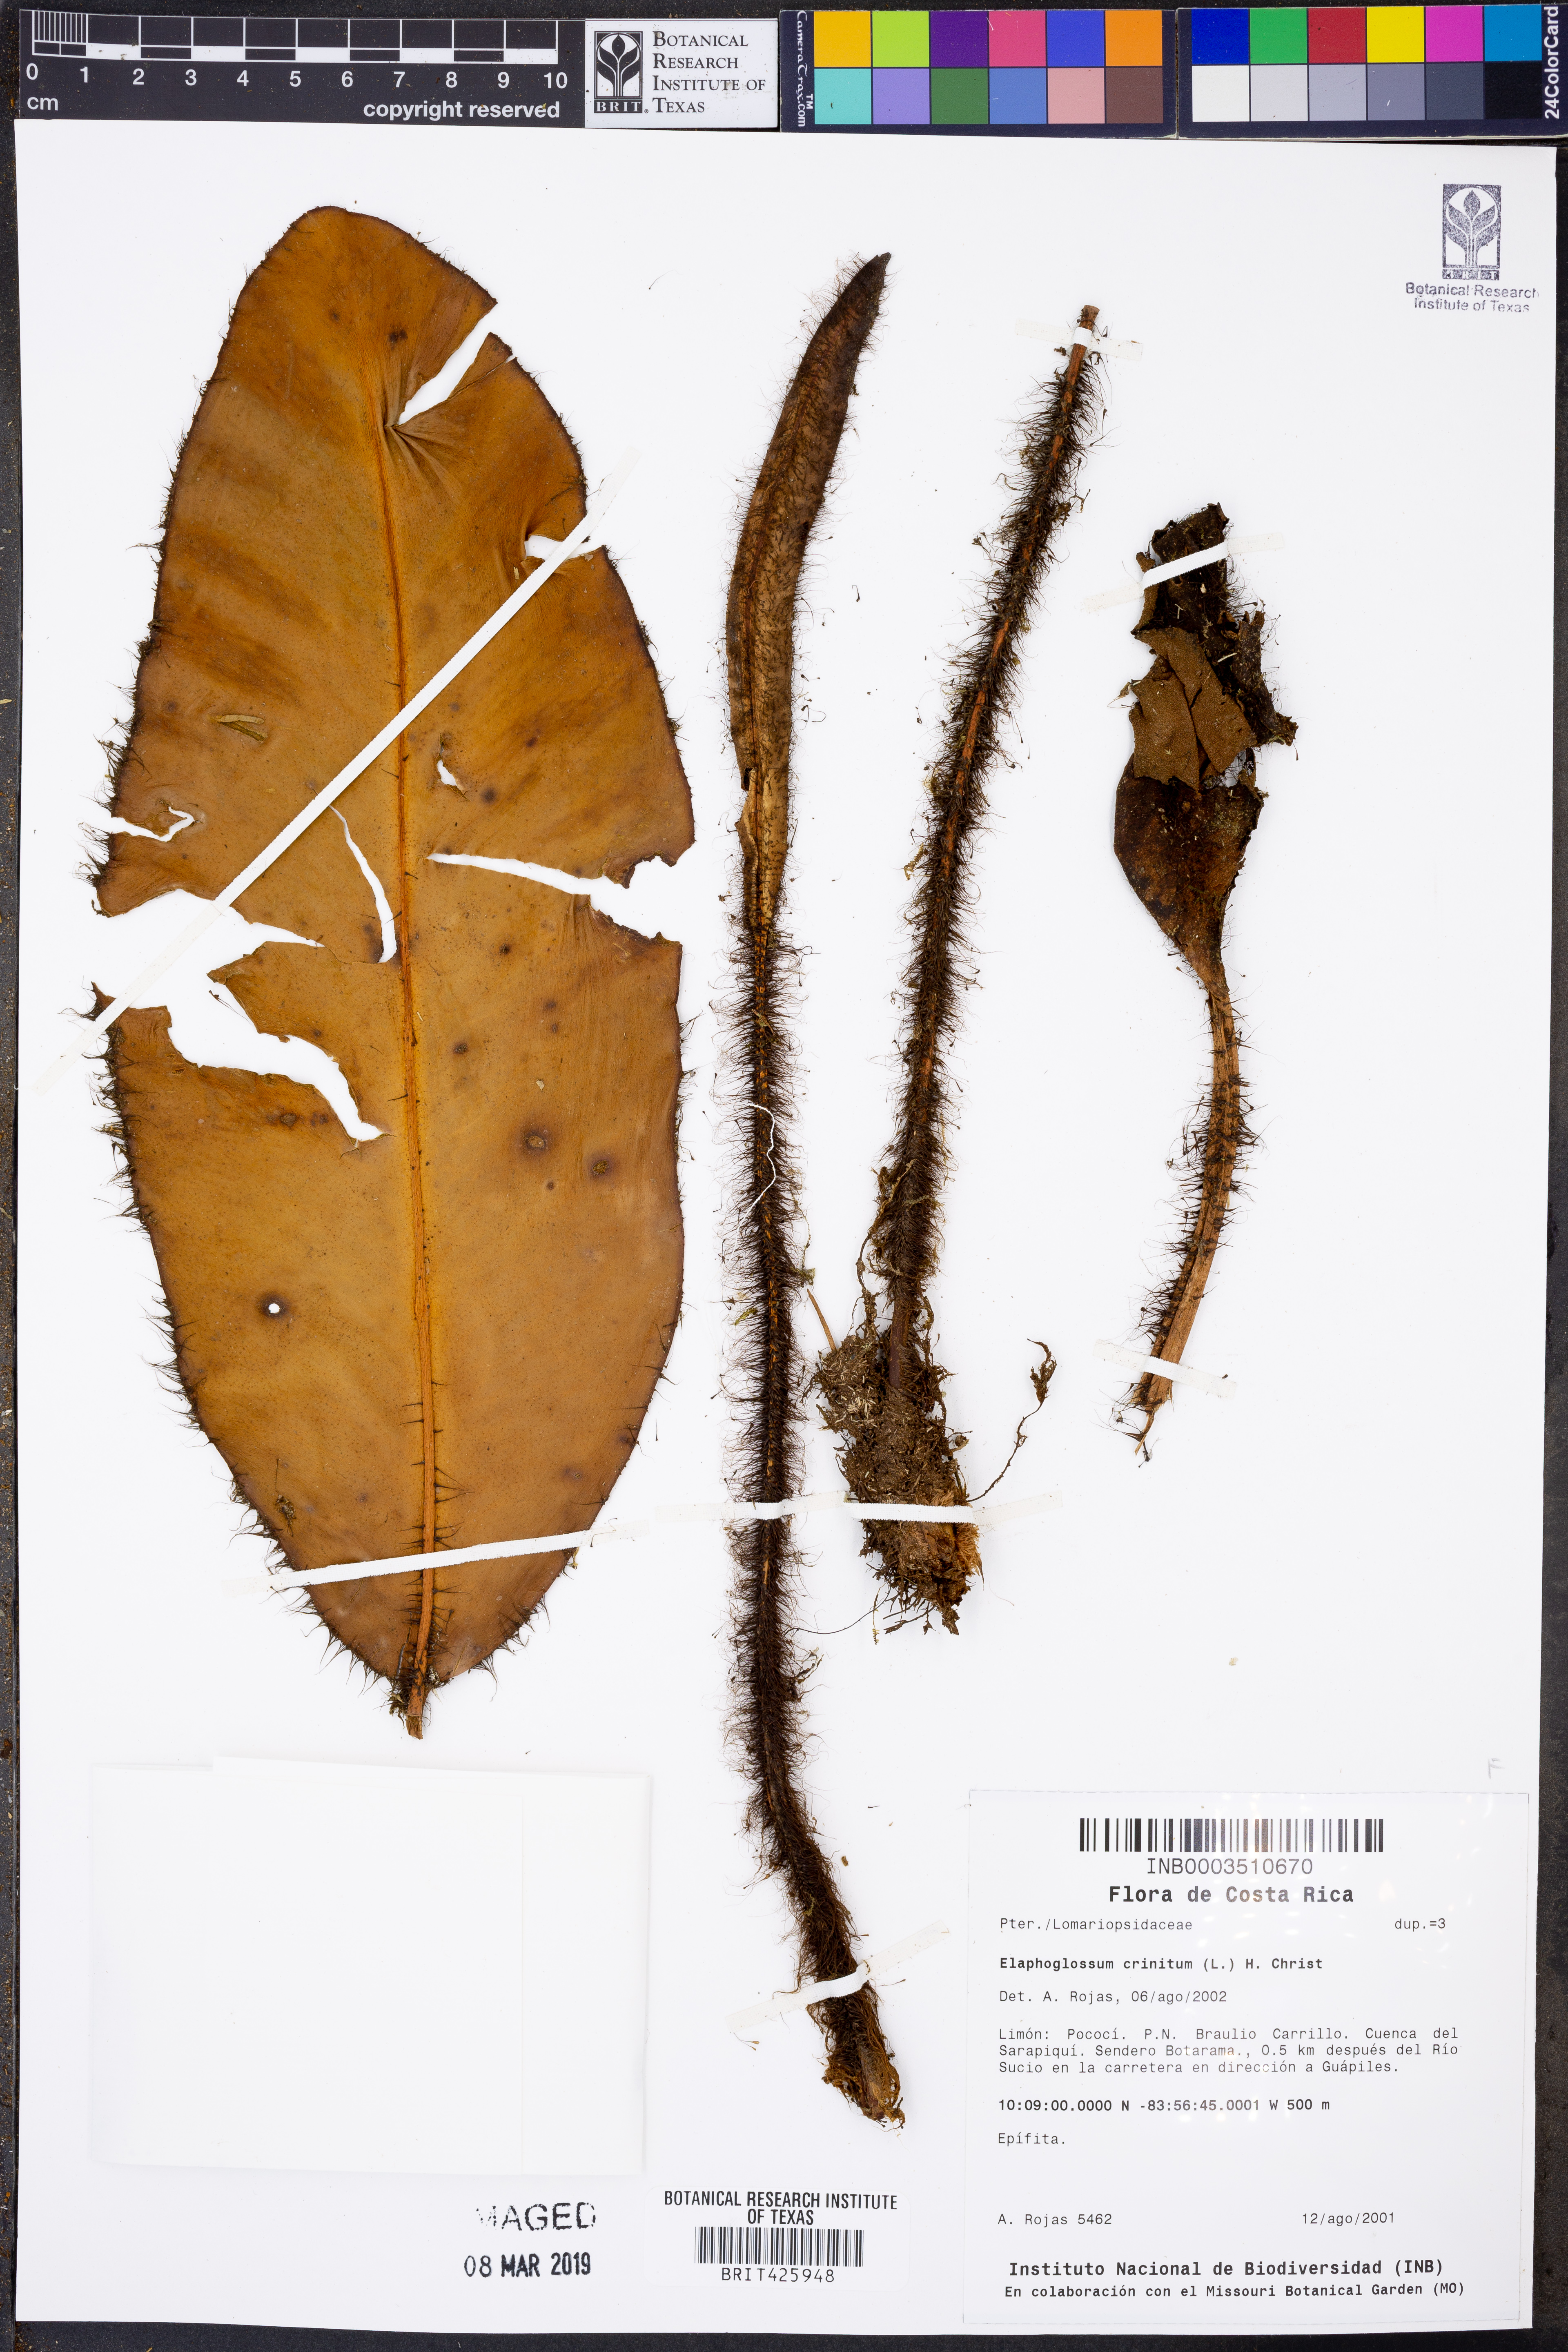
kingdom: Plantae
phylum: Tracheophyta
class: Polypodiopsida
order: Polypodiales
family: Dryopteridaceae
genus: Elaphoglossum
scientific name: Elaphoglossum crinitum
